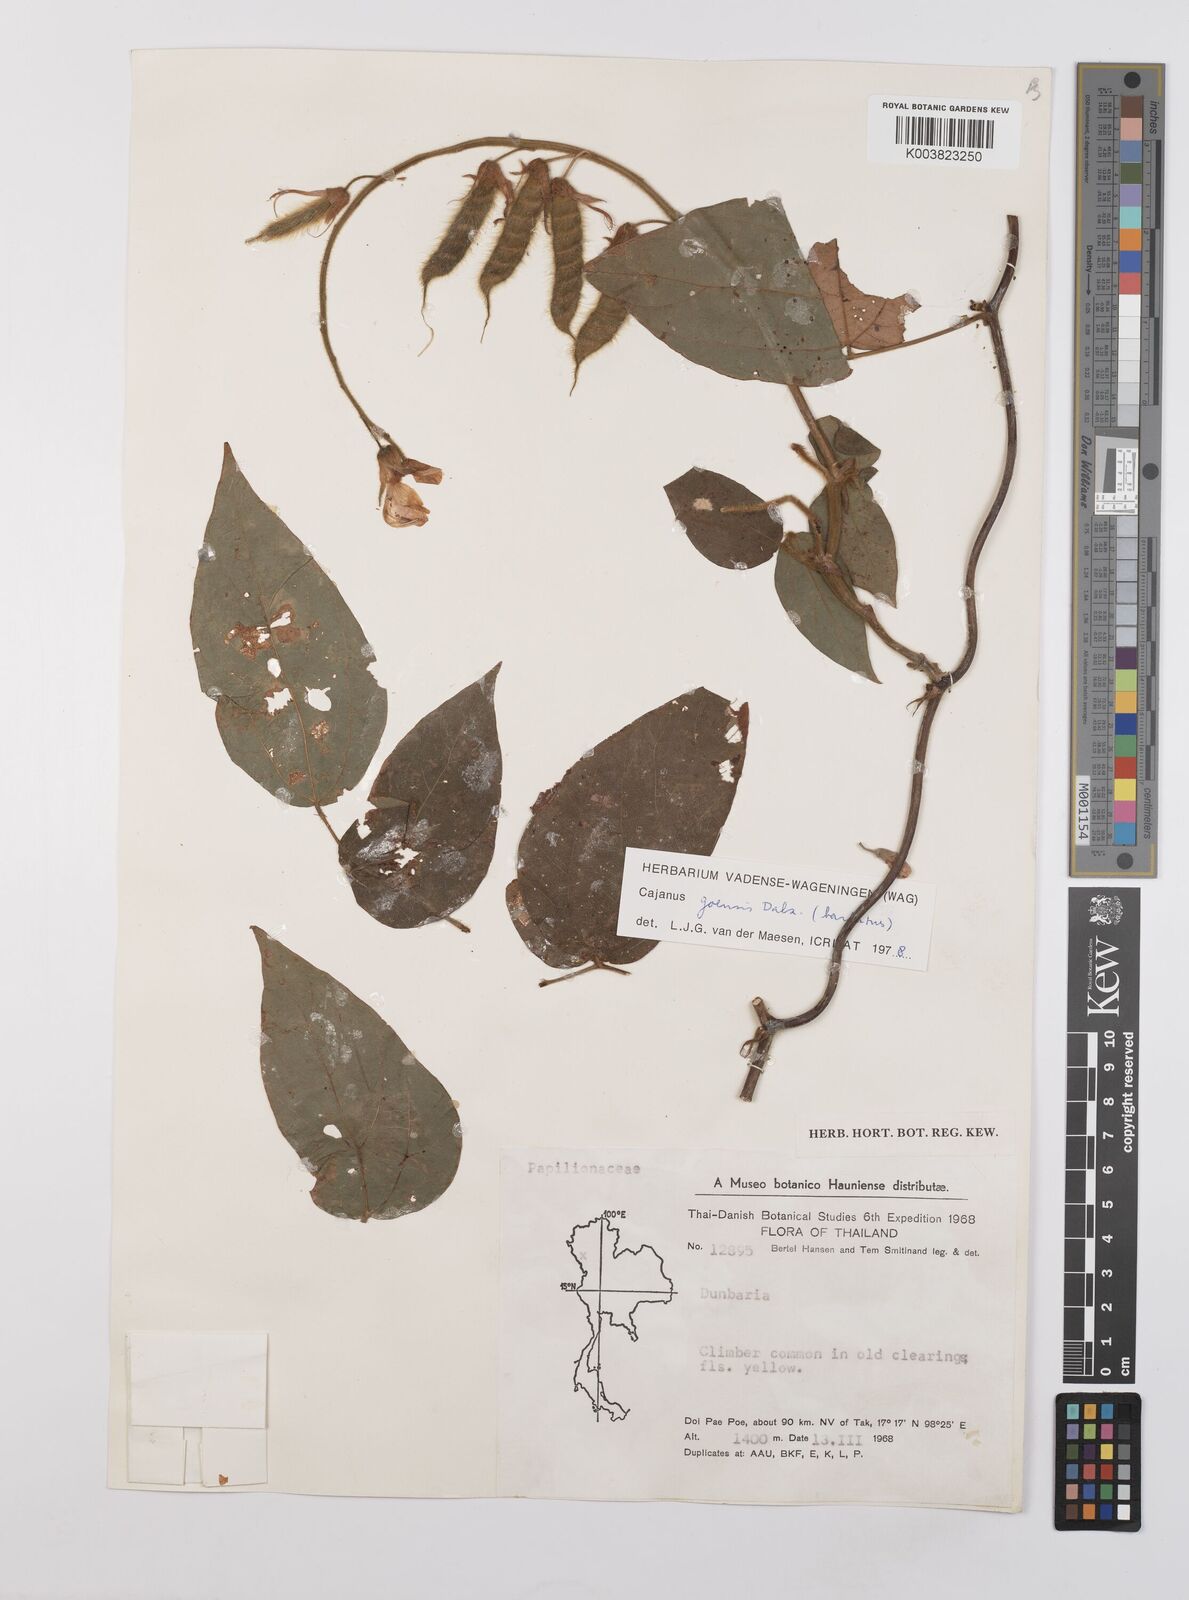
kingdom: Plantae
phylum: Tracheophyta
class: Magnoliopsida
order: Fabales
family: Fabaceae
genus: Cajanus
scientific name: Cajanus goensis
